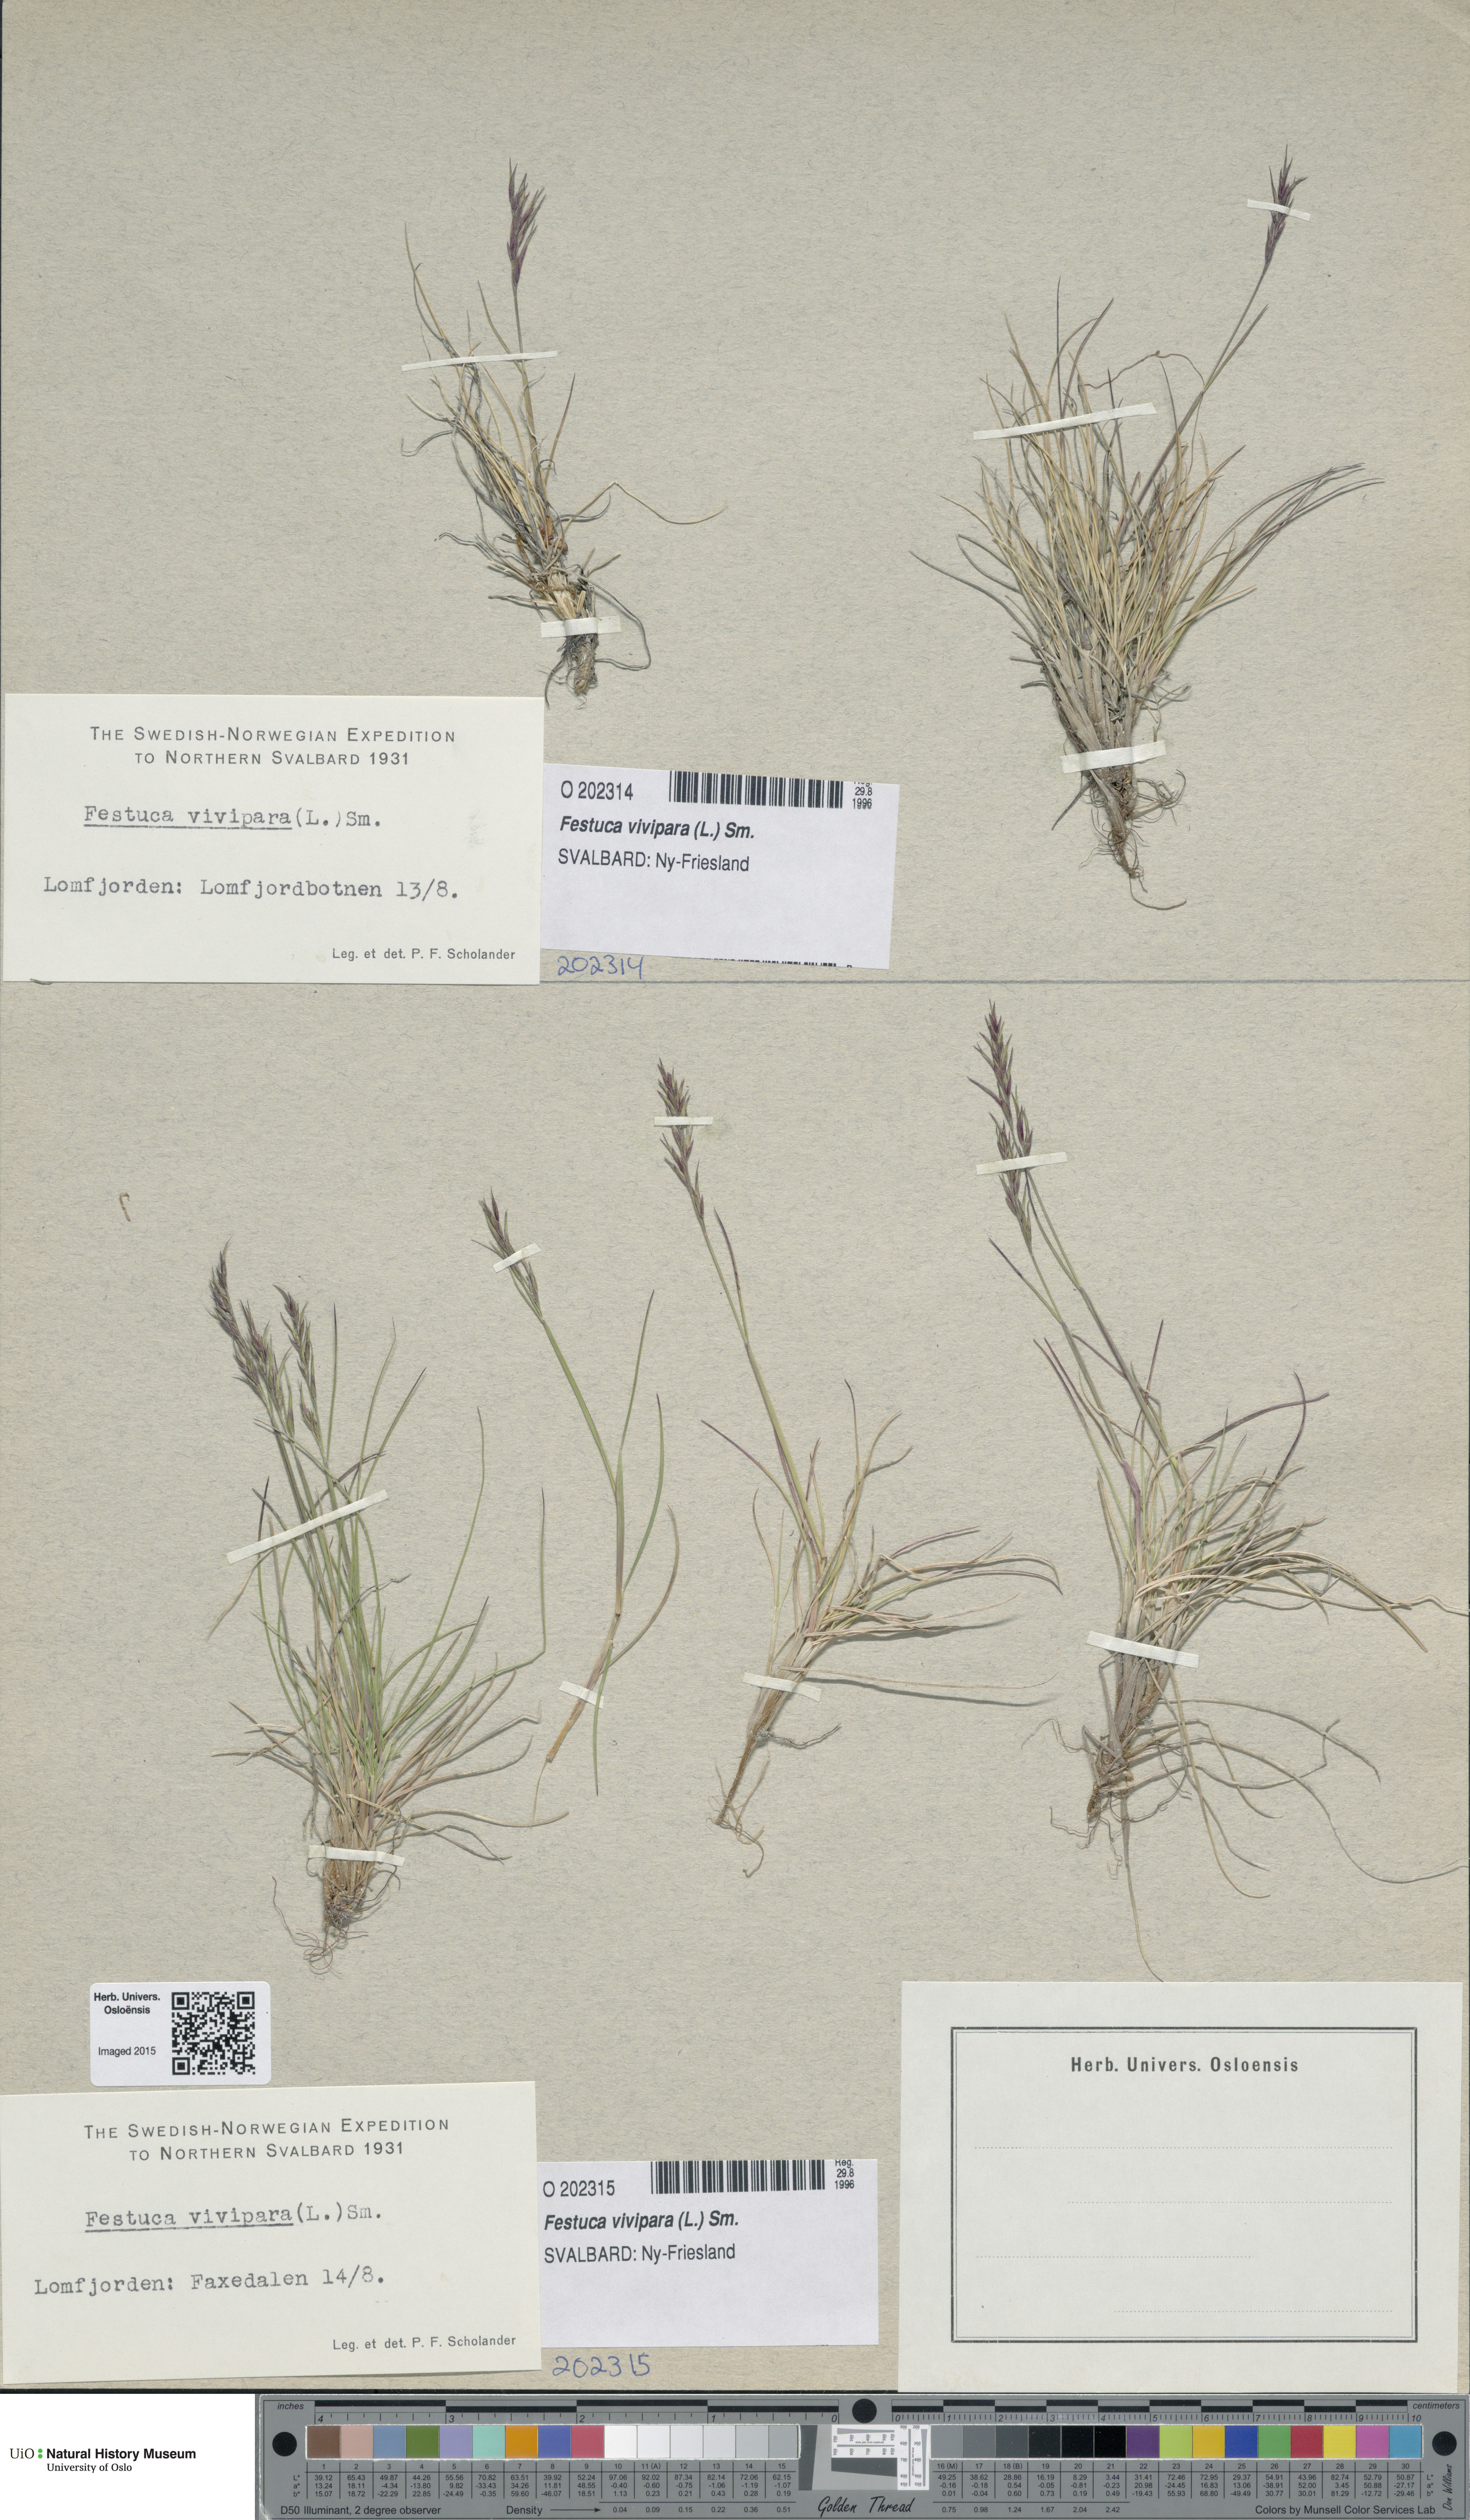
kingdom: Plantae
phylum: Tracheophyta
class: Liliopsida
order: Poales
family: Poaceae
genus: Festuca
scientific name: Festuca vivipara
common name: Viviparous sheep's-fescue
